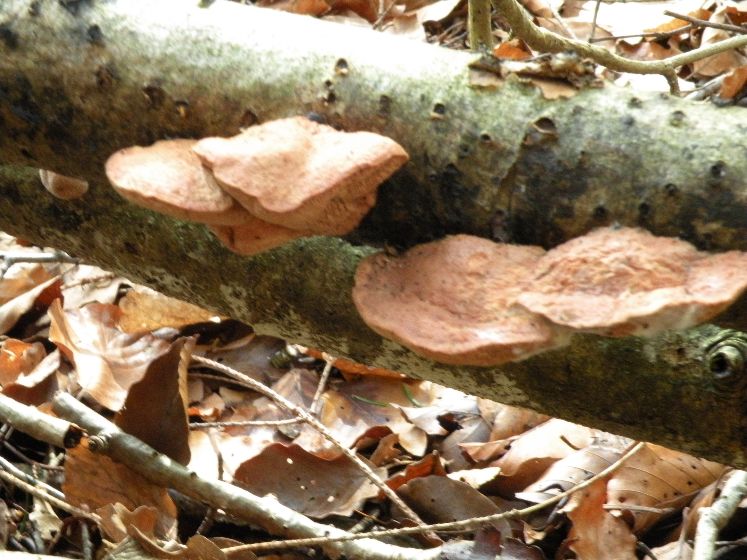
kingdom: Fungi
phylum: Basidiomycota
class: Agaricomycetes
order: Polyporales
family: Phanerochaetaceae
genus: Hapalopilus
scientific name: Hapalopilus rutilans
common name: rødlig okkerporesvamp
